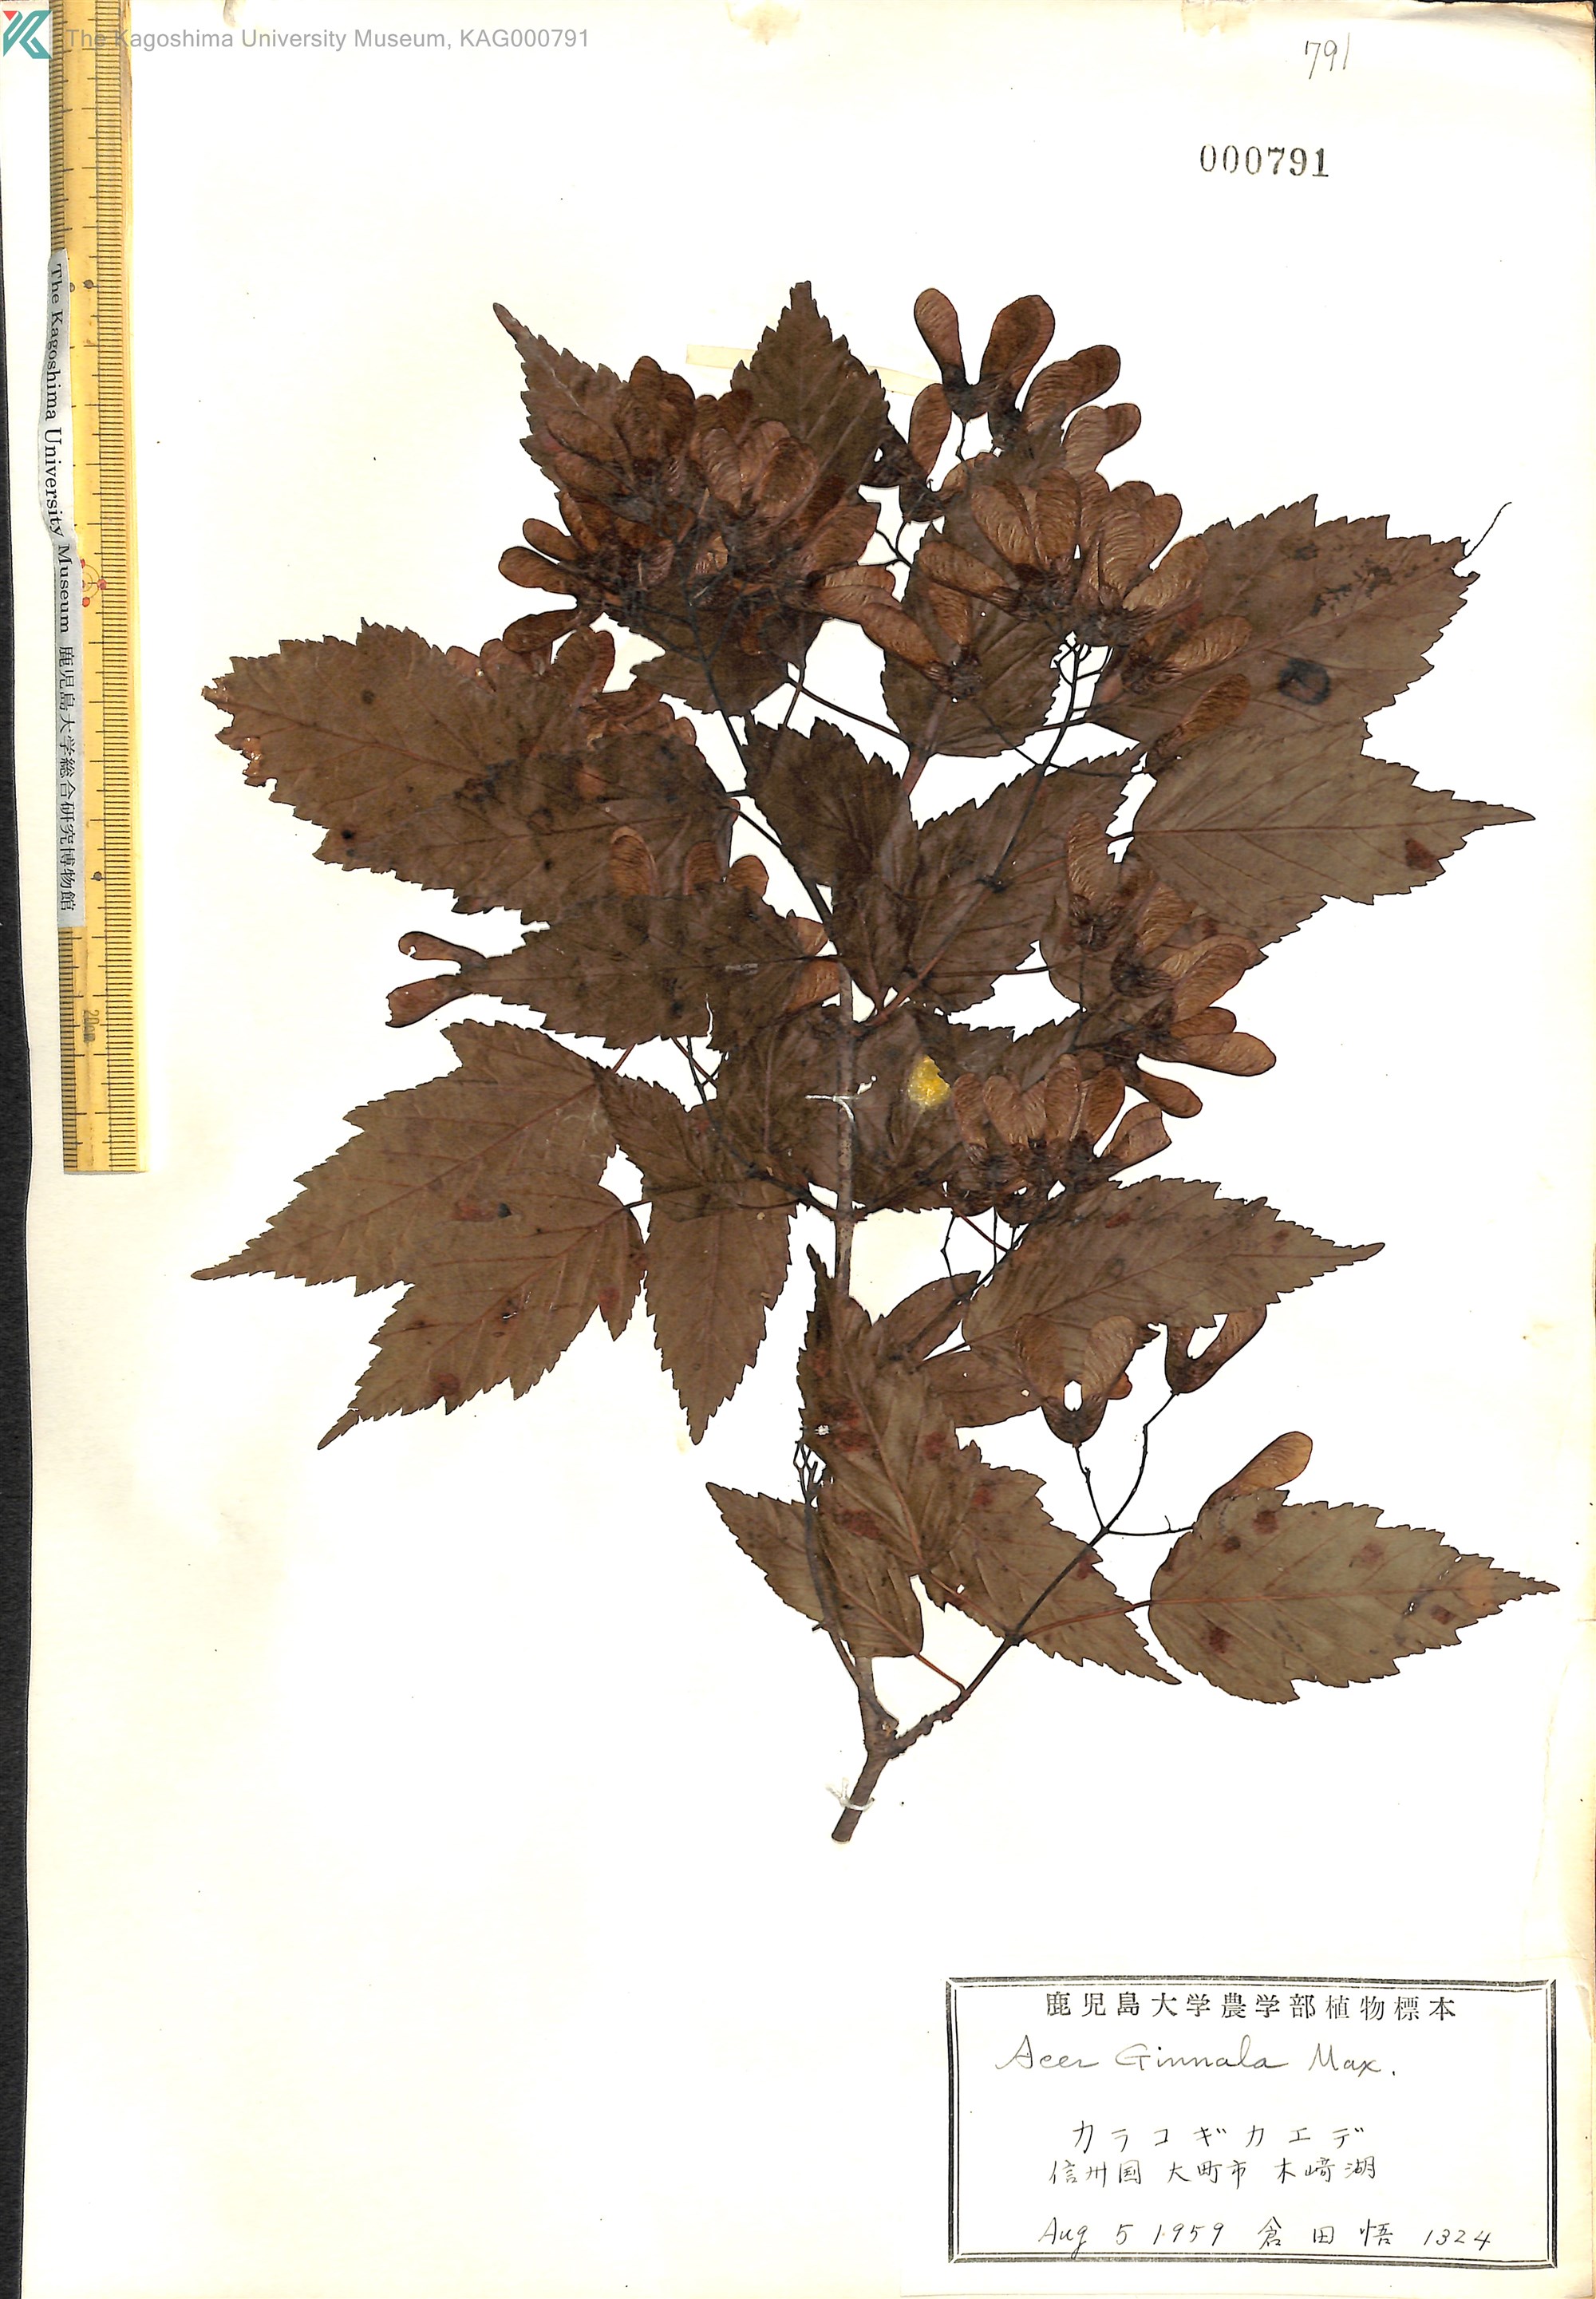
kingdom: Plantae
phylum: Tracheophyta
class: Magnoliopsida
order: Sapindales
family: Sapindaceae
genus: Acer
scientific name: Acer tataricum
